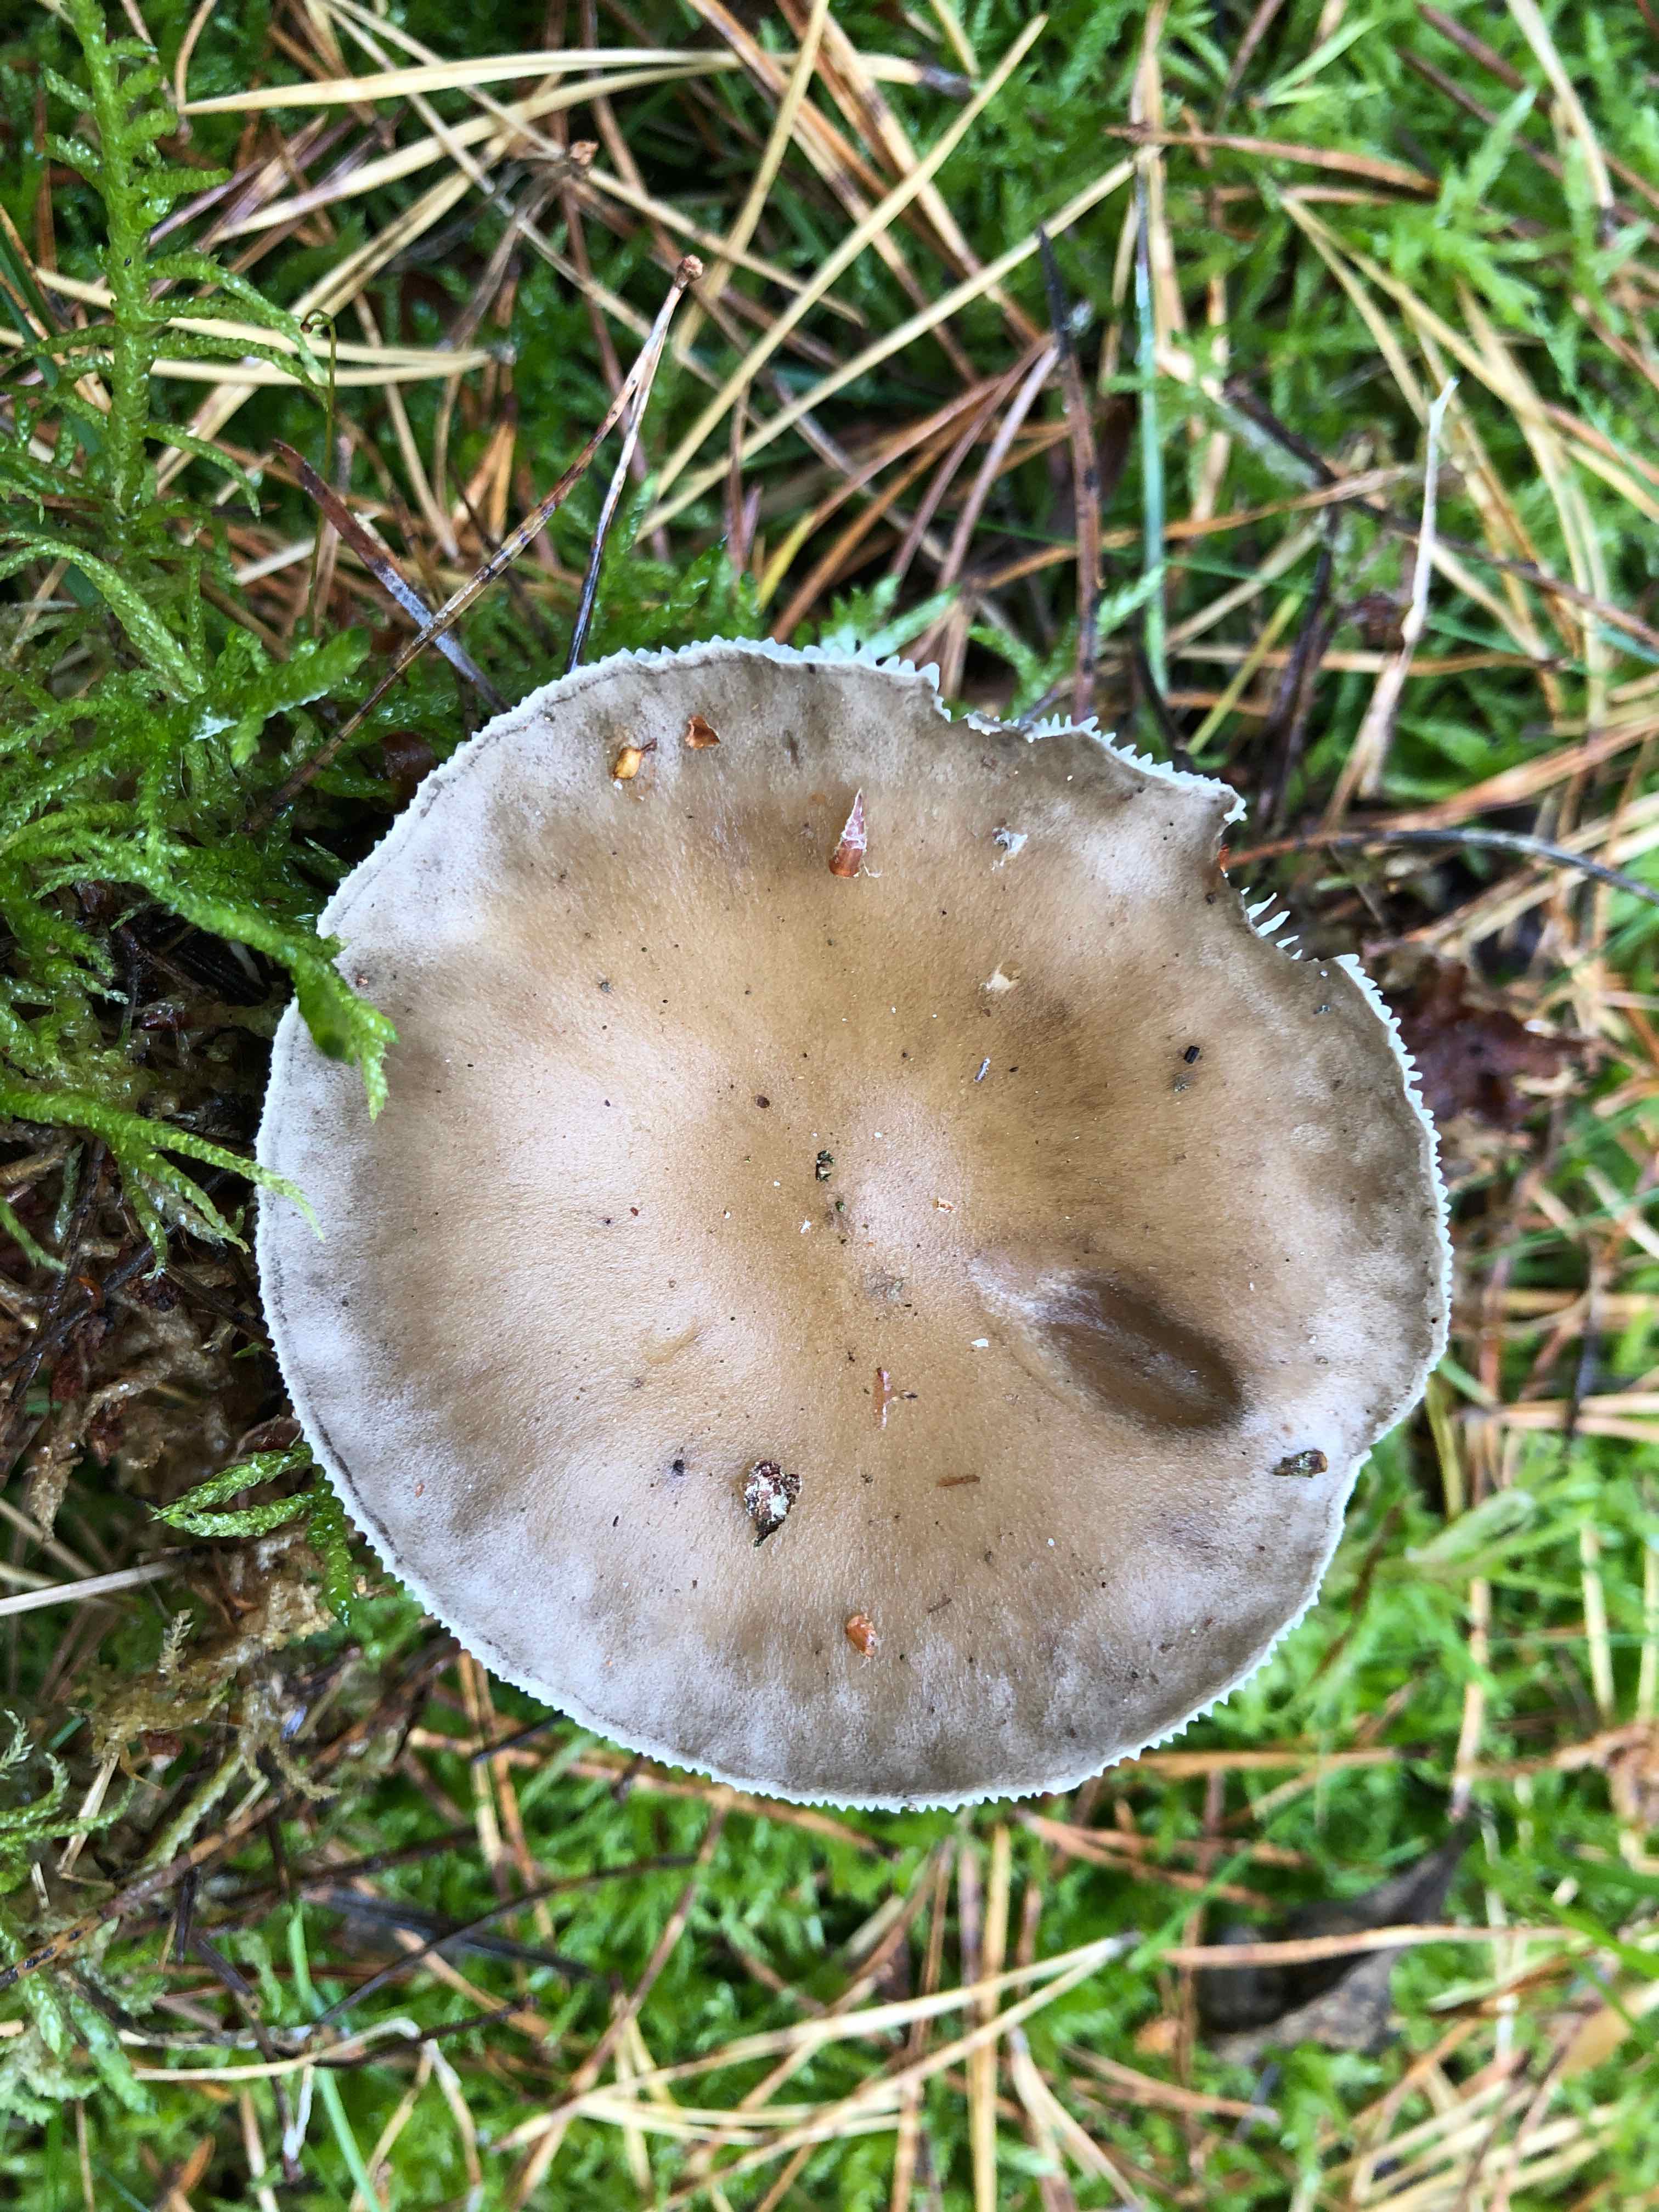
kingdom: Fungi
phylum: Basidiomycota
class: Agaricomycetes
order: Agaricales
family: Hygrophoraceae
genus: Ampulloclitocybe
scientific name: Ampulloclitocybe clavipes
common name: køllefod
